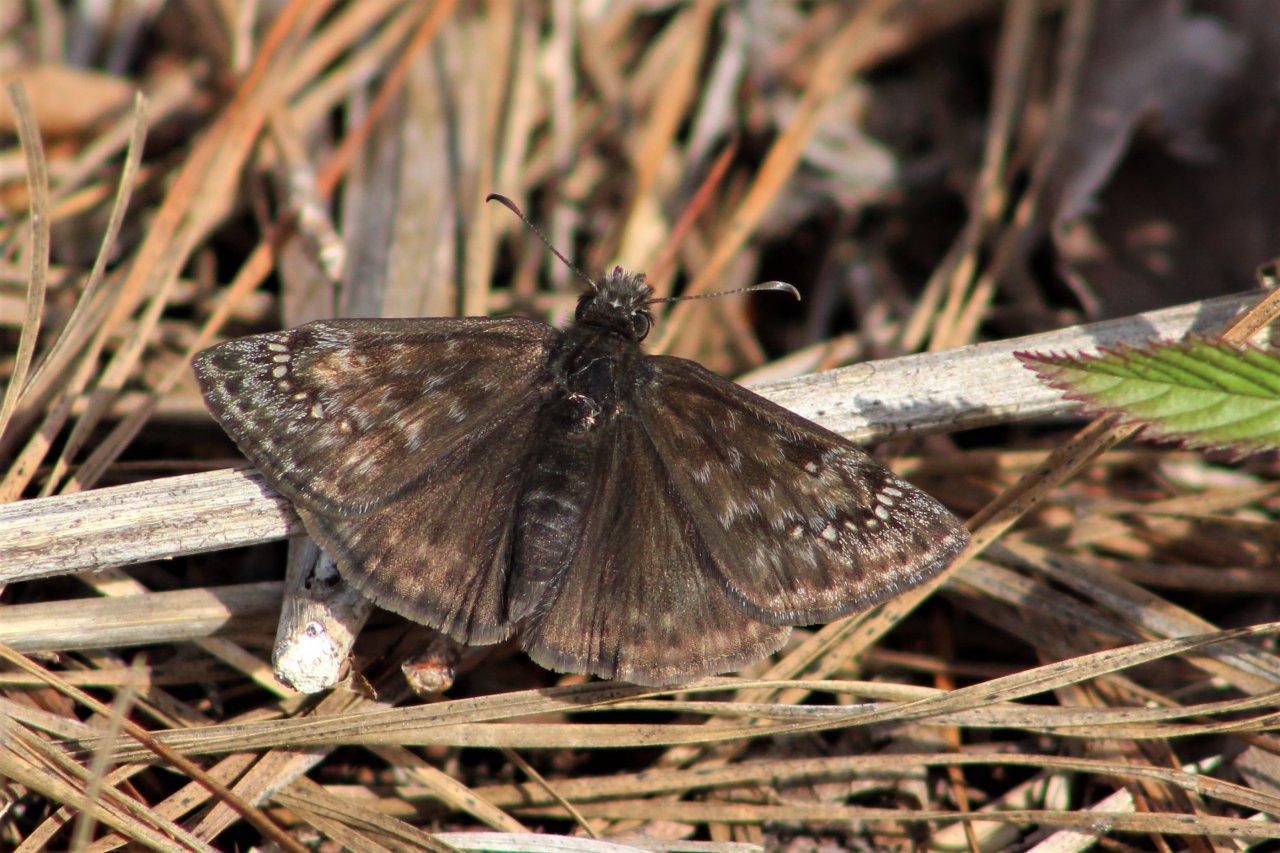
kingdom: Animalia
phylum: Arthropoda
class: Insecta
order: Lepidoptera
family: Hesperiidae
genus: Gesta
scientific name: Gesta
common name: Horace's Duskywing
